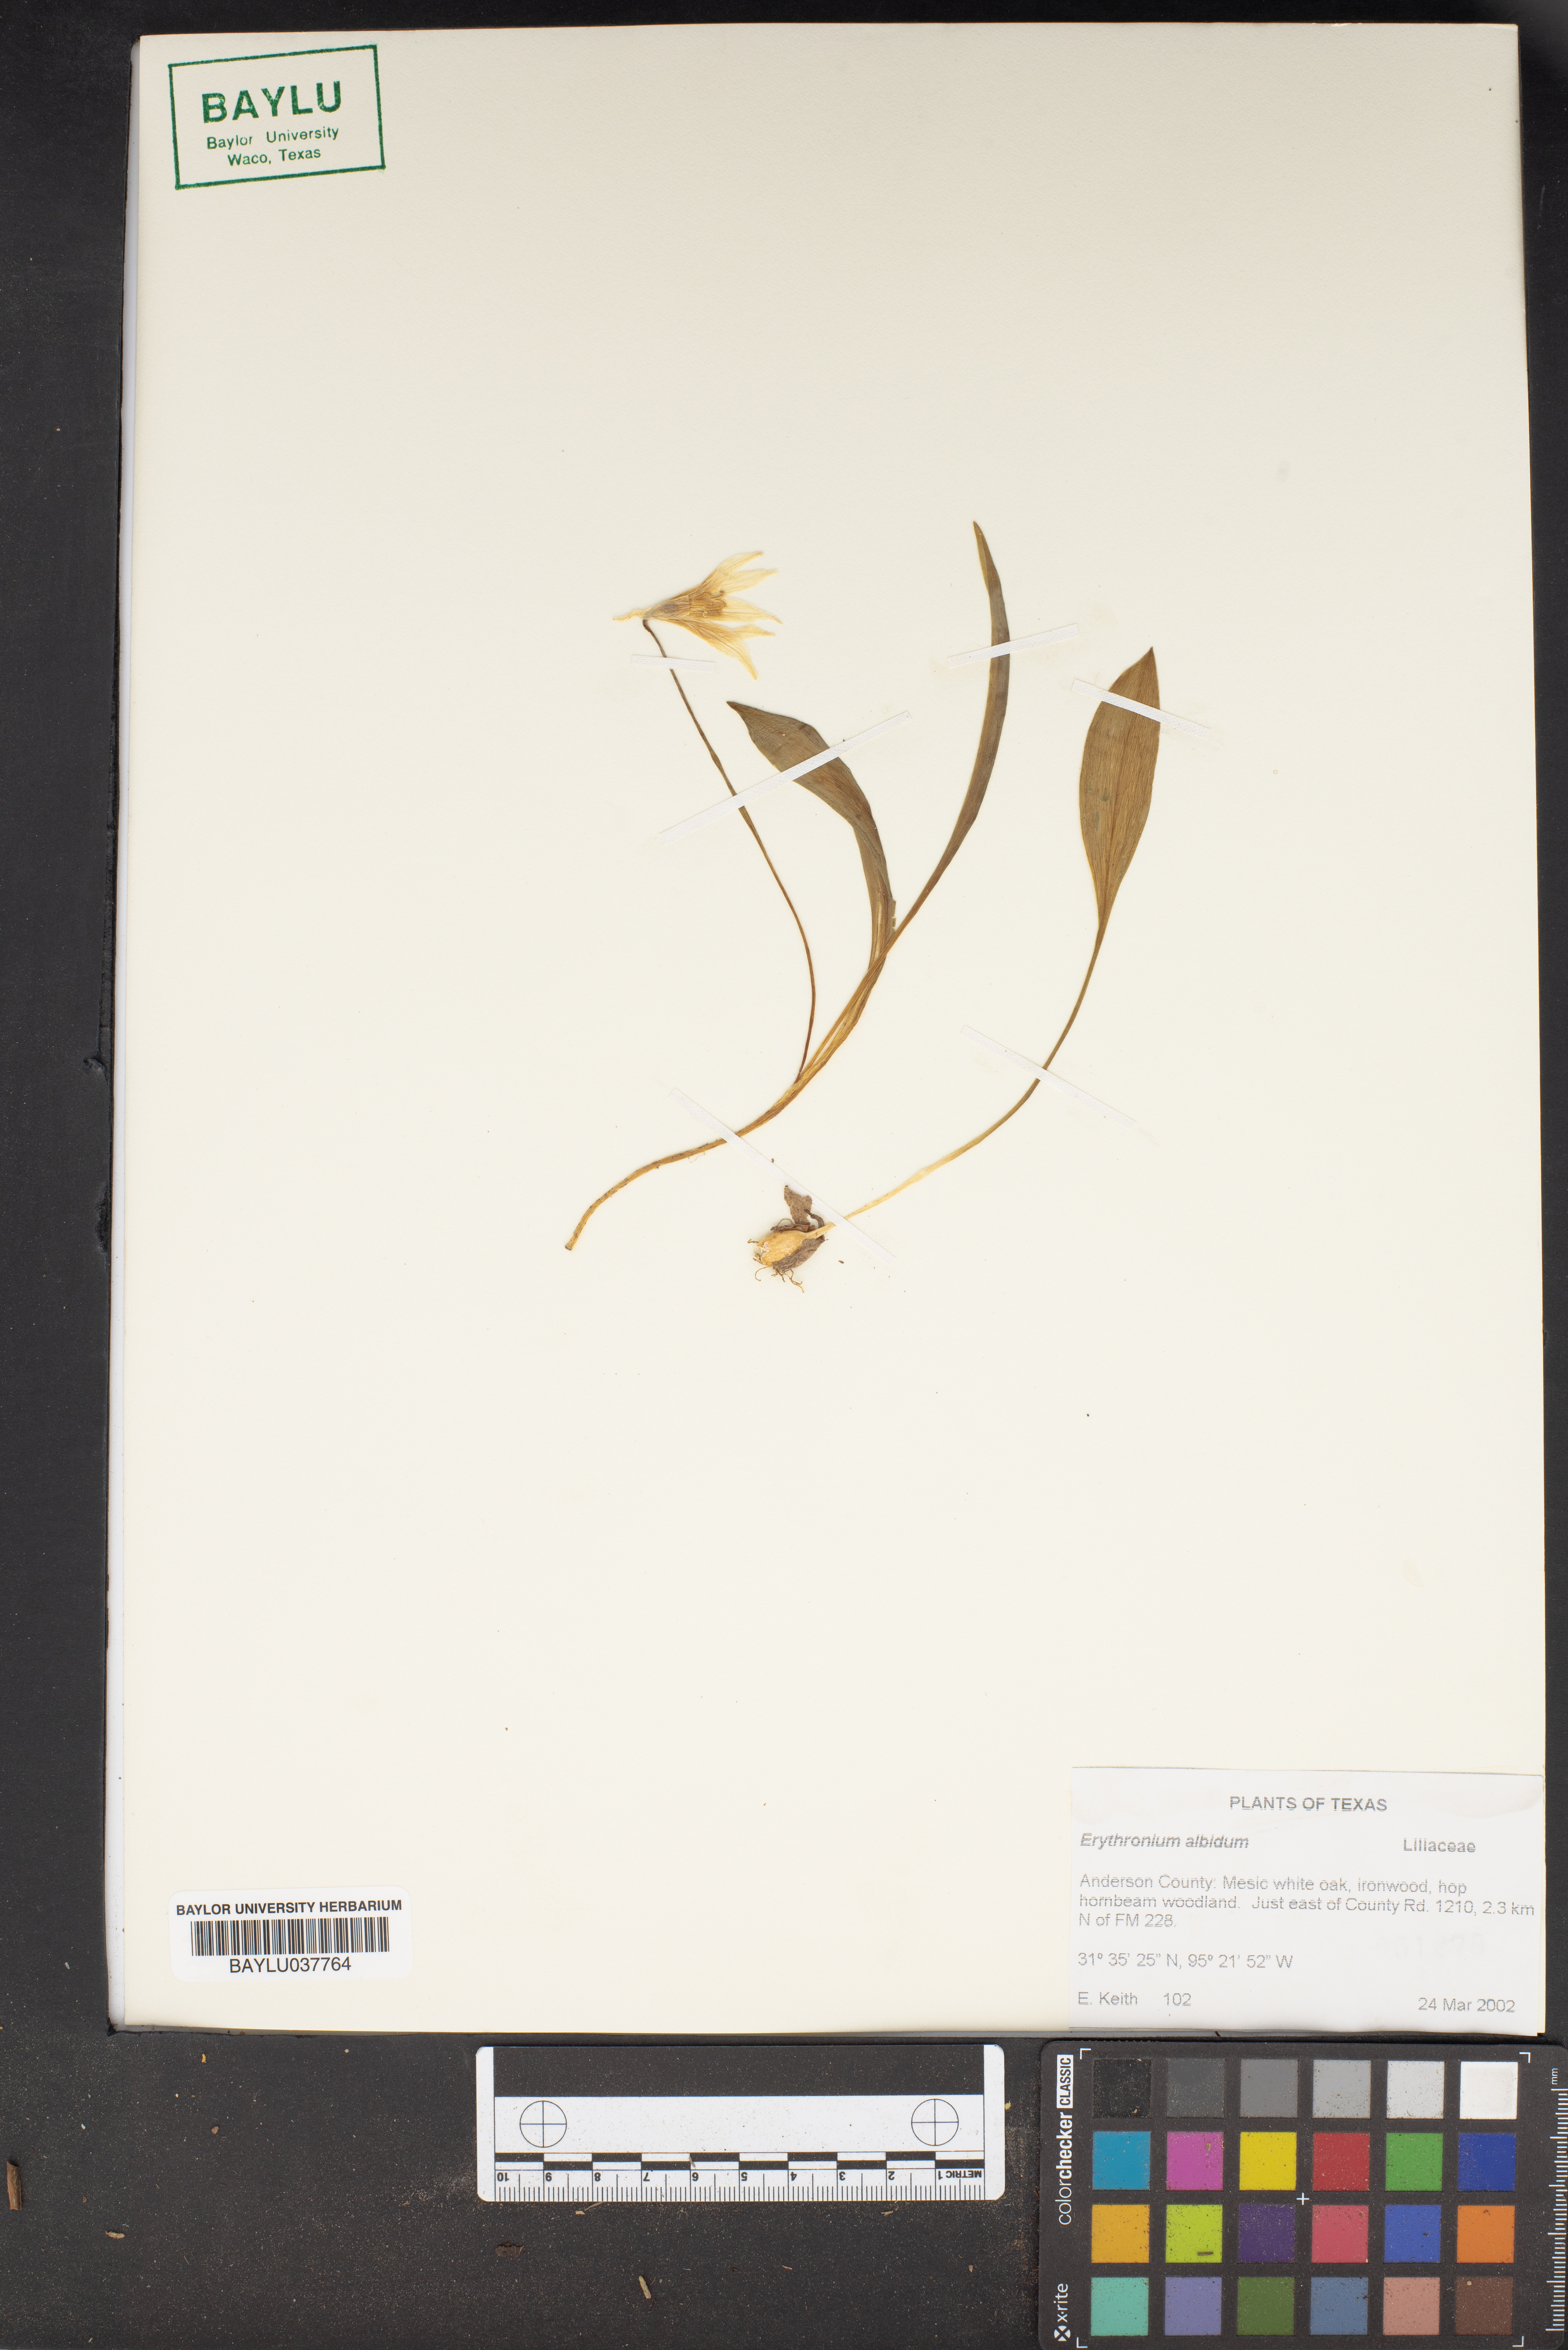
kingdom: Plantae
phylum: Tracheophyta
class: Liliopsida
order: Liliales
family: Liliaceae
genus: Erythronium
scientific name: Erythronium albidum
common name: White trout-lily
